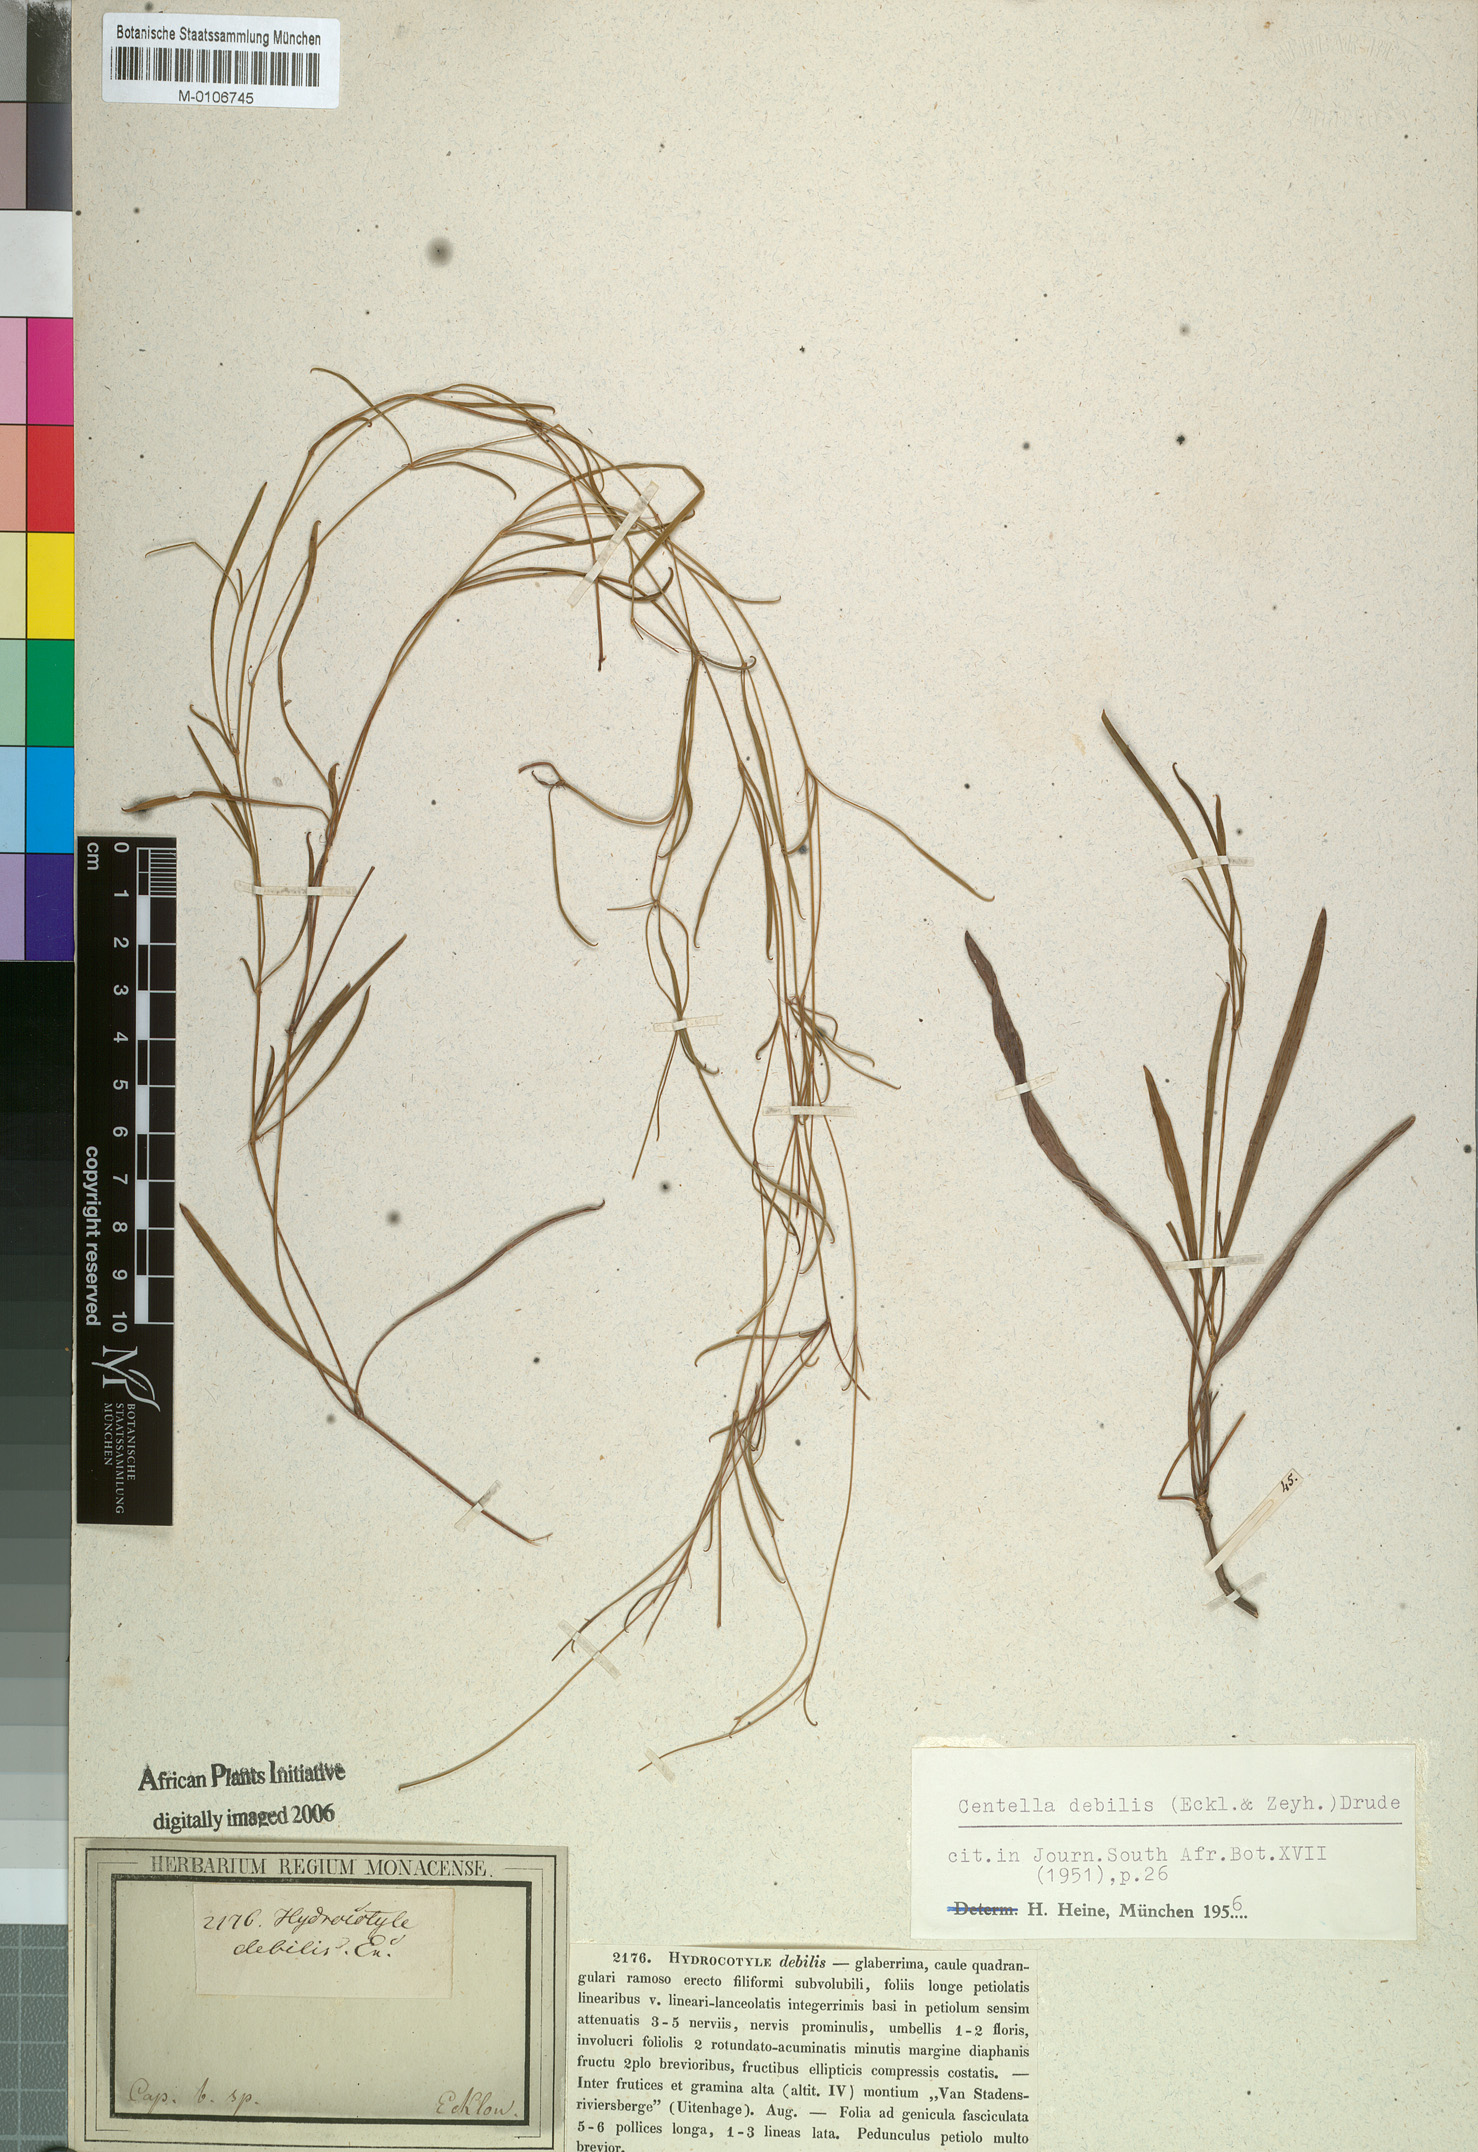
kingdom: Plantae
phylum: Tracheophyta
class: Magnoliopsida
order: Apiales
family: Apiaceae
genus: Centella
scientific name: Centella debilis
